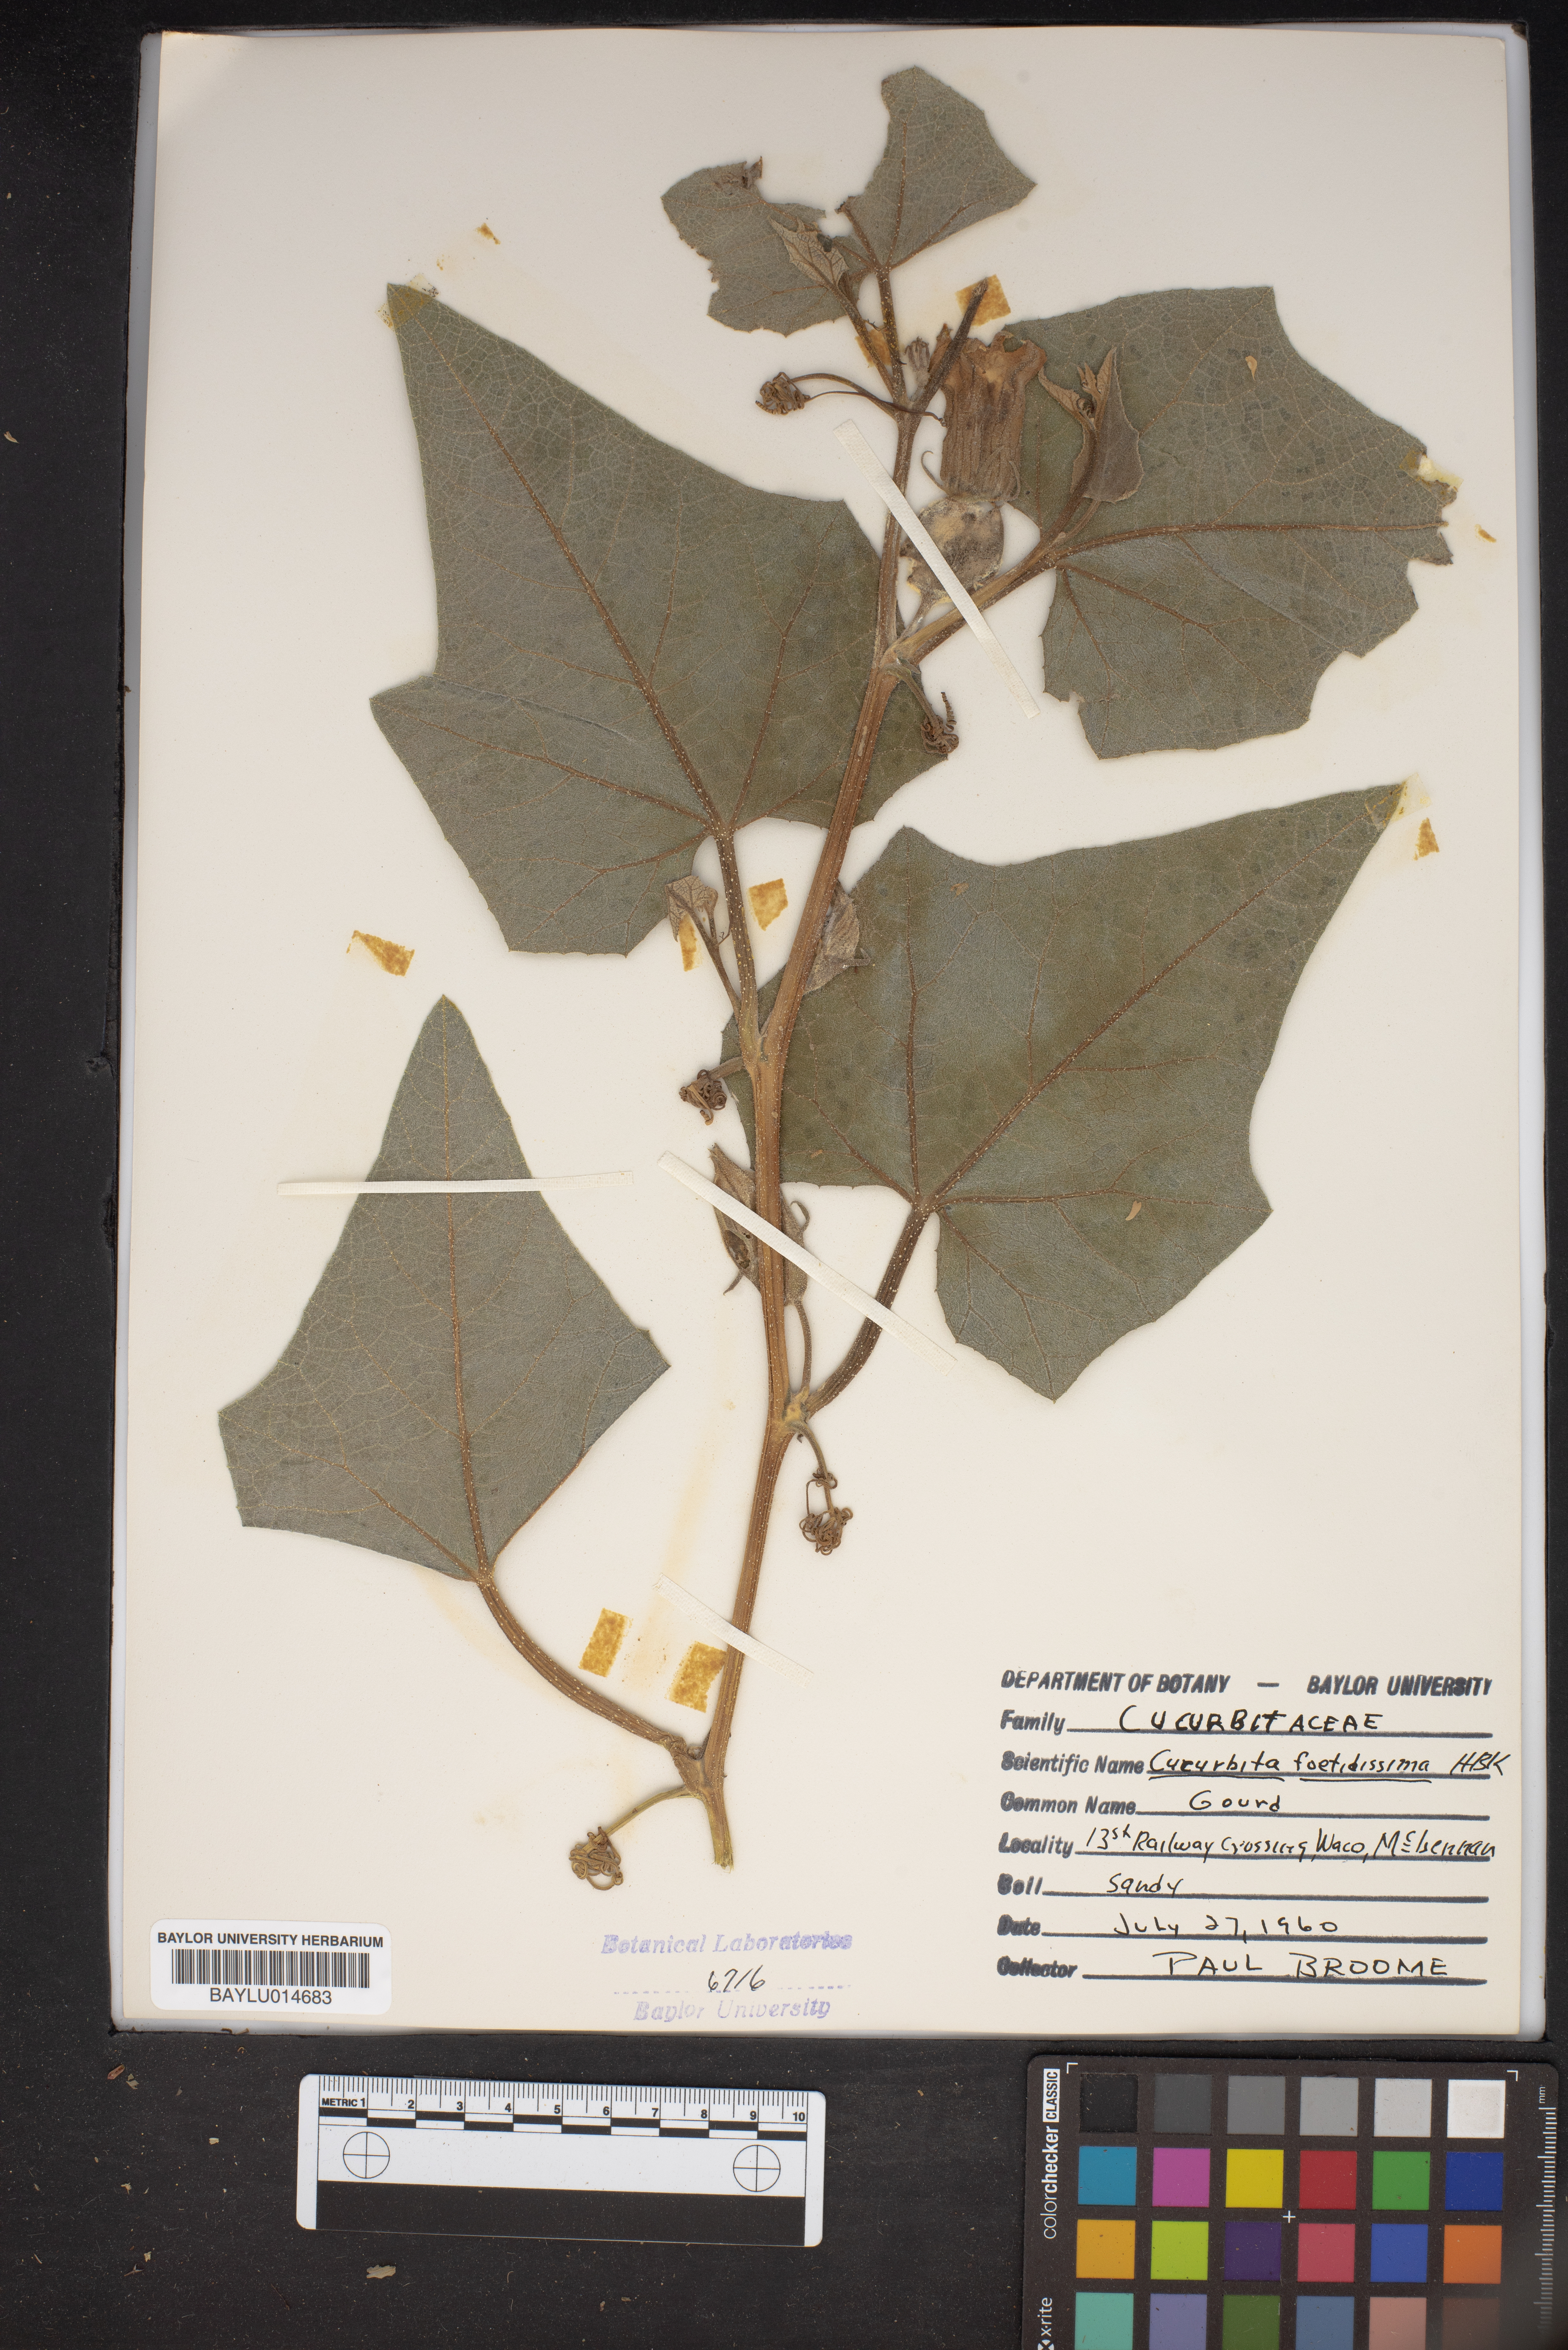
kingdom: Plantae
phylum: Tracheophyta
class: Magnoliopsida
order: Cucurbitales
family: Cucurbitaceae
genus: Cucurbita
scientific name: Cucurbita foetidissima
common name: Buffalo gourd
